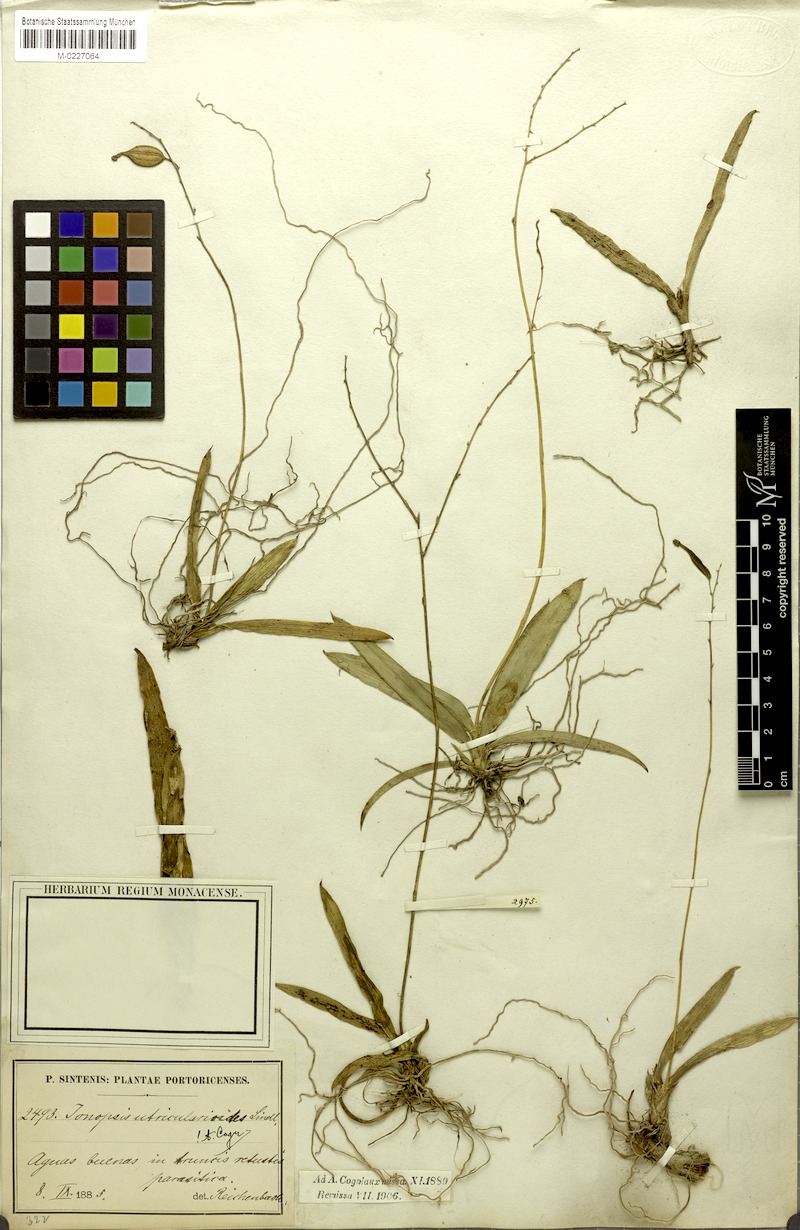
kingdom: Plantae
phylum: Tracheophyta
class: Liliopsida
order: Asparagales
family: Orchidaceae
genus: Ionopsis
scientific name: Ionopsis utricularioides
